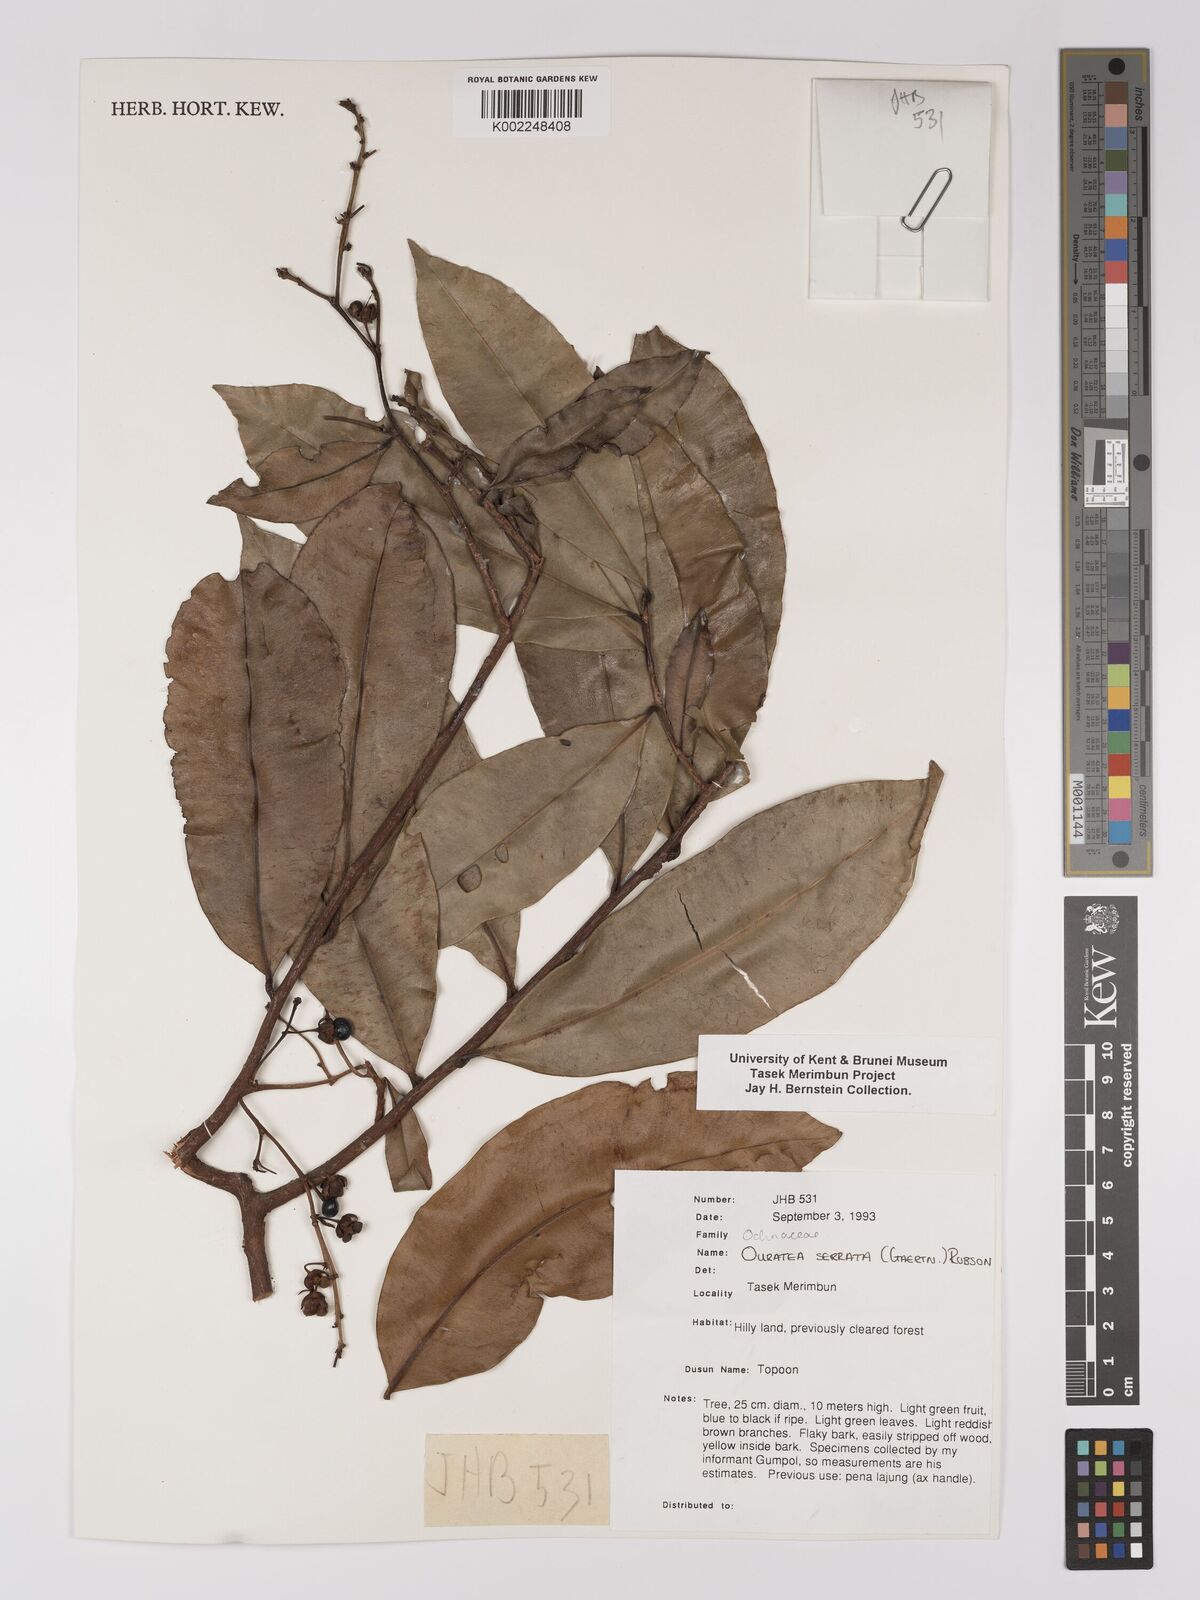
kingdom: Plantae
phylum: Tracheophyta
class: Magnoliopsida
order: Malpighiales
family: Ochnaceae
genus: Gomphia
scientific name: Gomphia serrata
